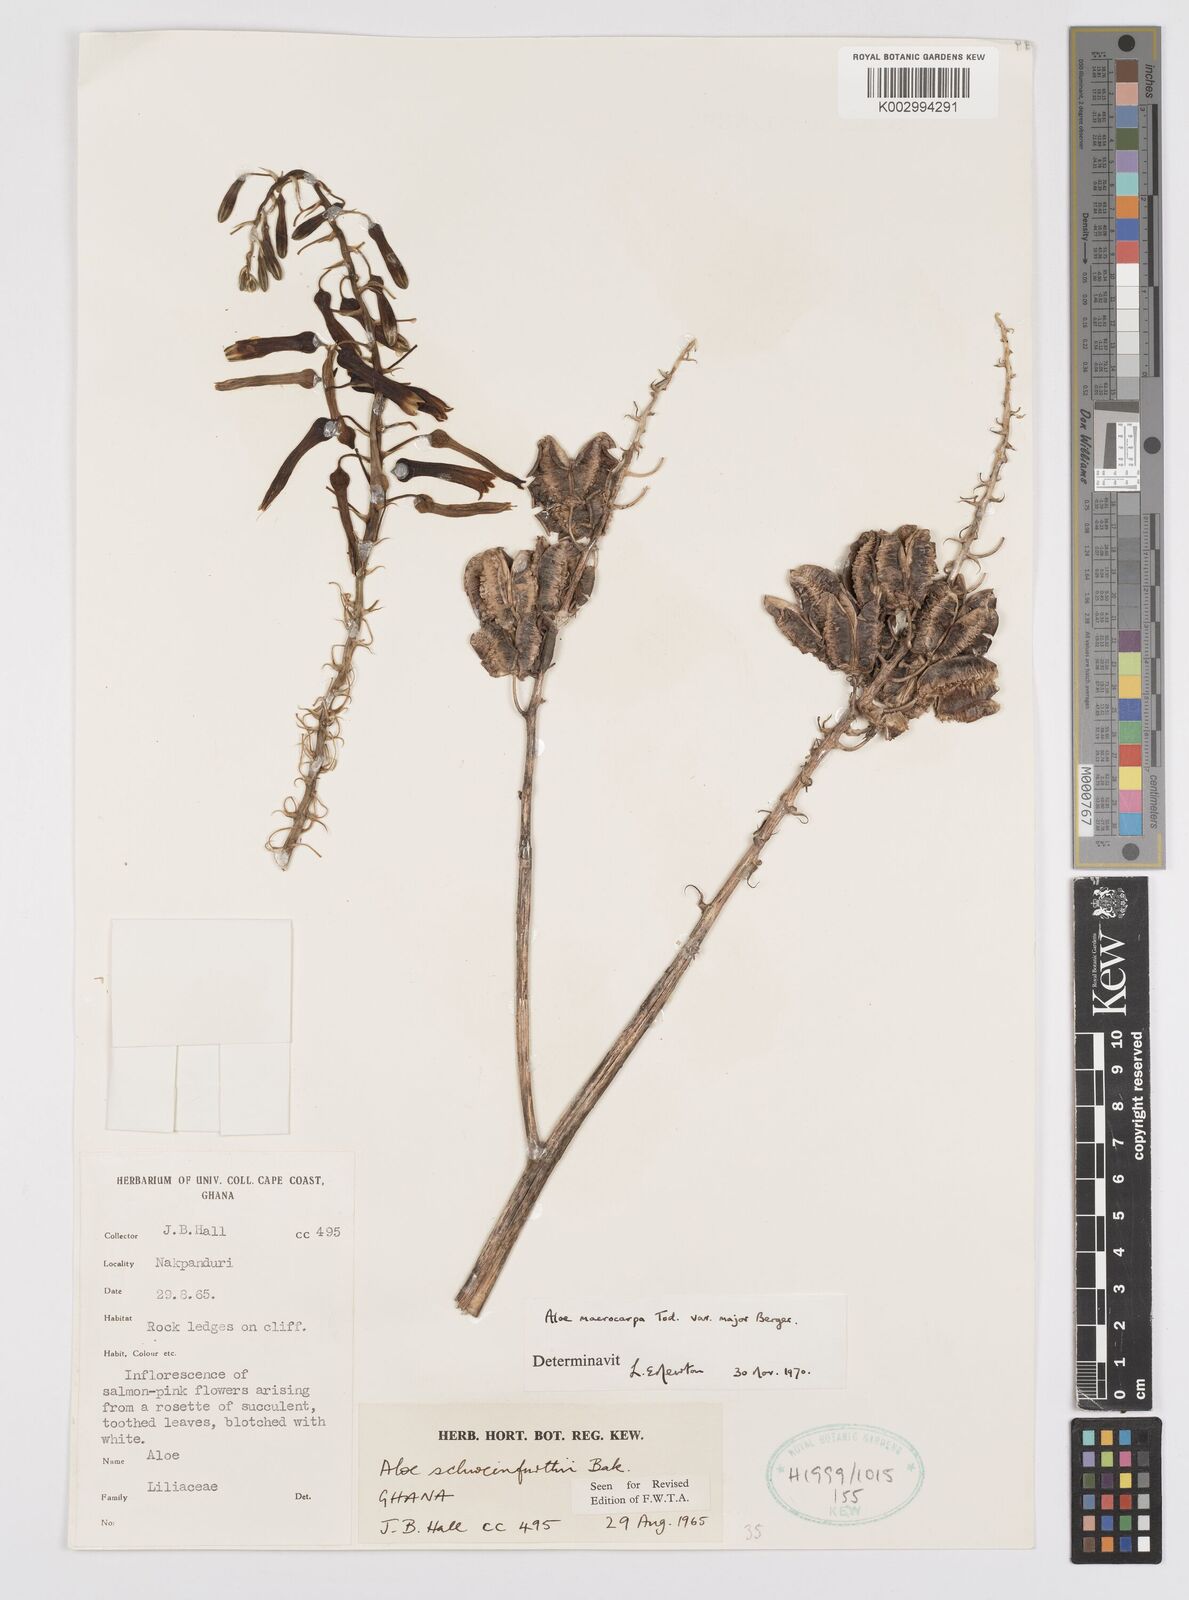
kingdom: Plantae
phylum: Tracheophyta
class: Liliopsida
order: Asparagales
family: Asphodelaceae
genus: Aloe
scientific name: Aloe macrocarpa
